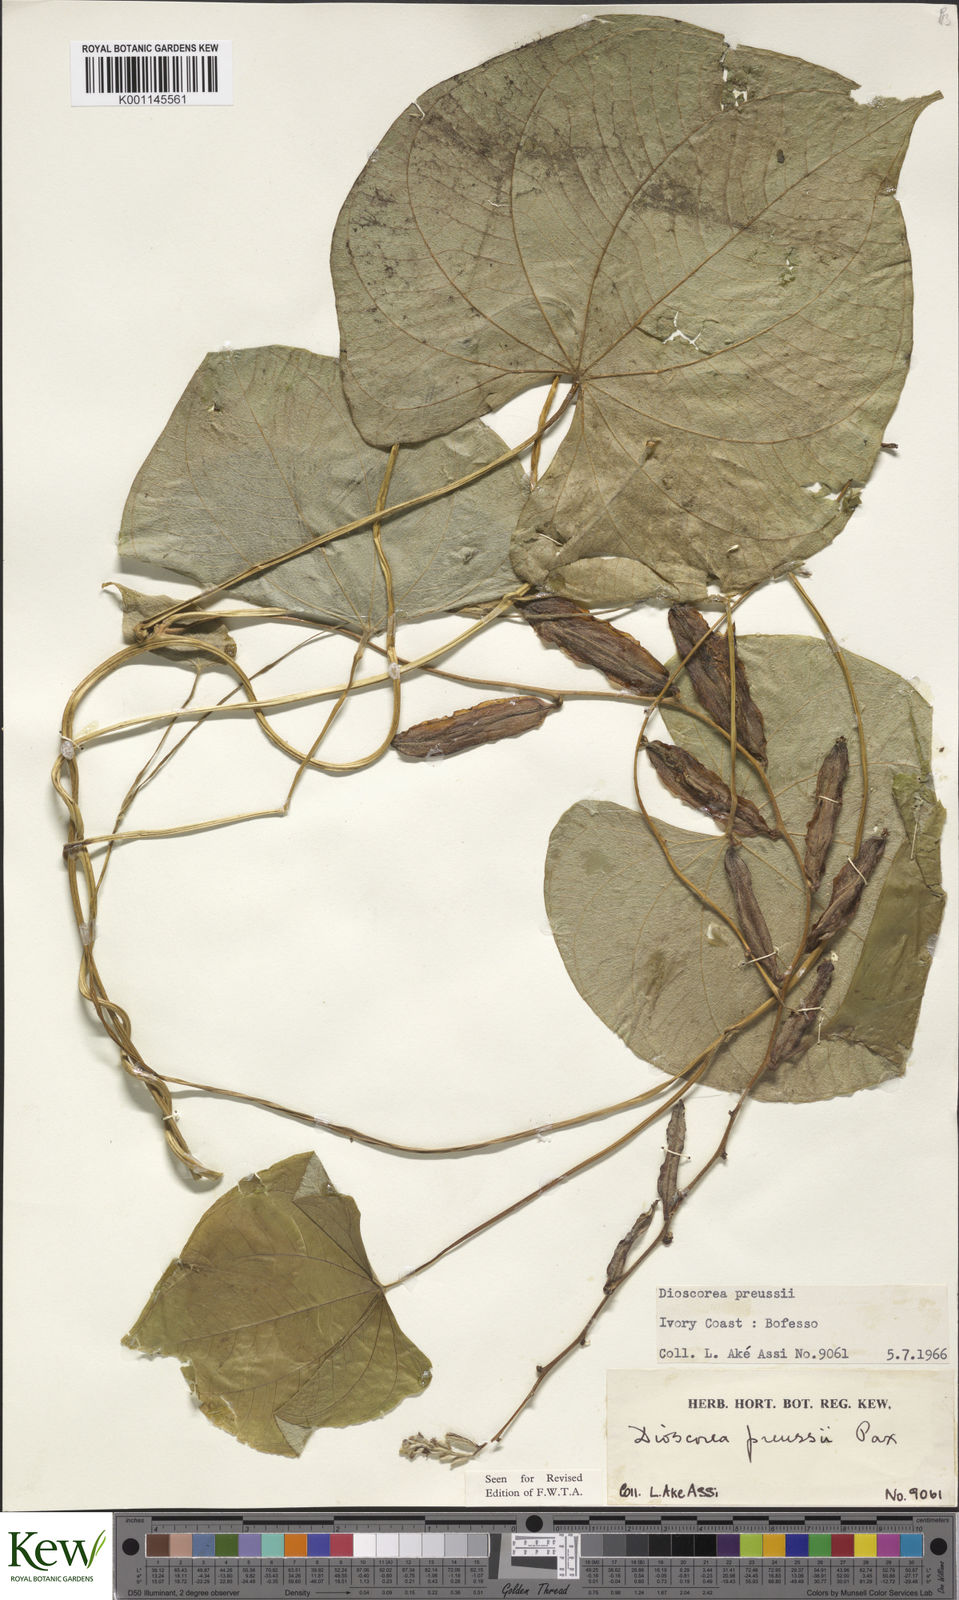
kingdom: Plantae
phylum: Tracheophyta
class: Liliopsida
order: Dioscoreales
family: Dioscoreaceae
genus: Dioscorea
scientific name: Dioscorea preussii
